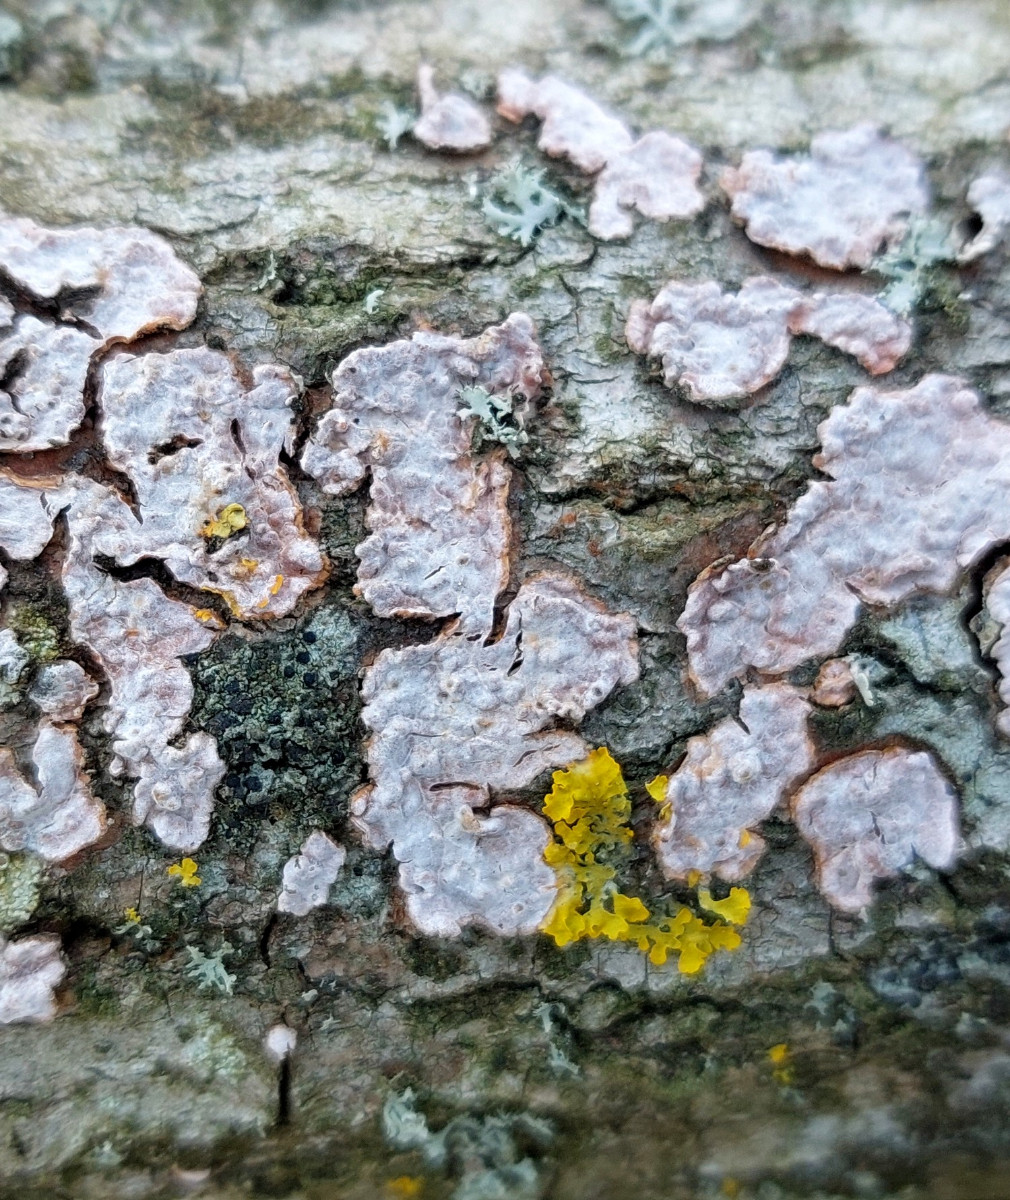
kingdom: Fungi
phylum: Basidiomycota
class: Agaricomycetes
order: Russulales
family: Peniophoraceae
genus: Peniophora
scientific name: Peniophora polygonia
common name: polygon-voksskind
